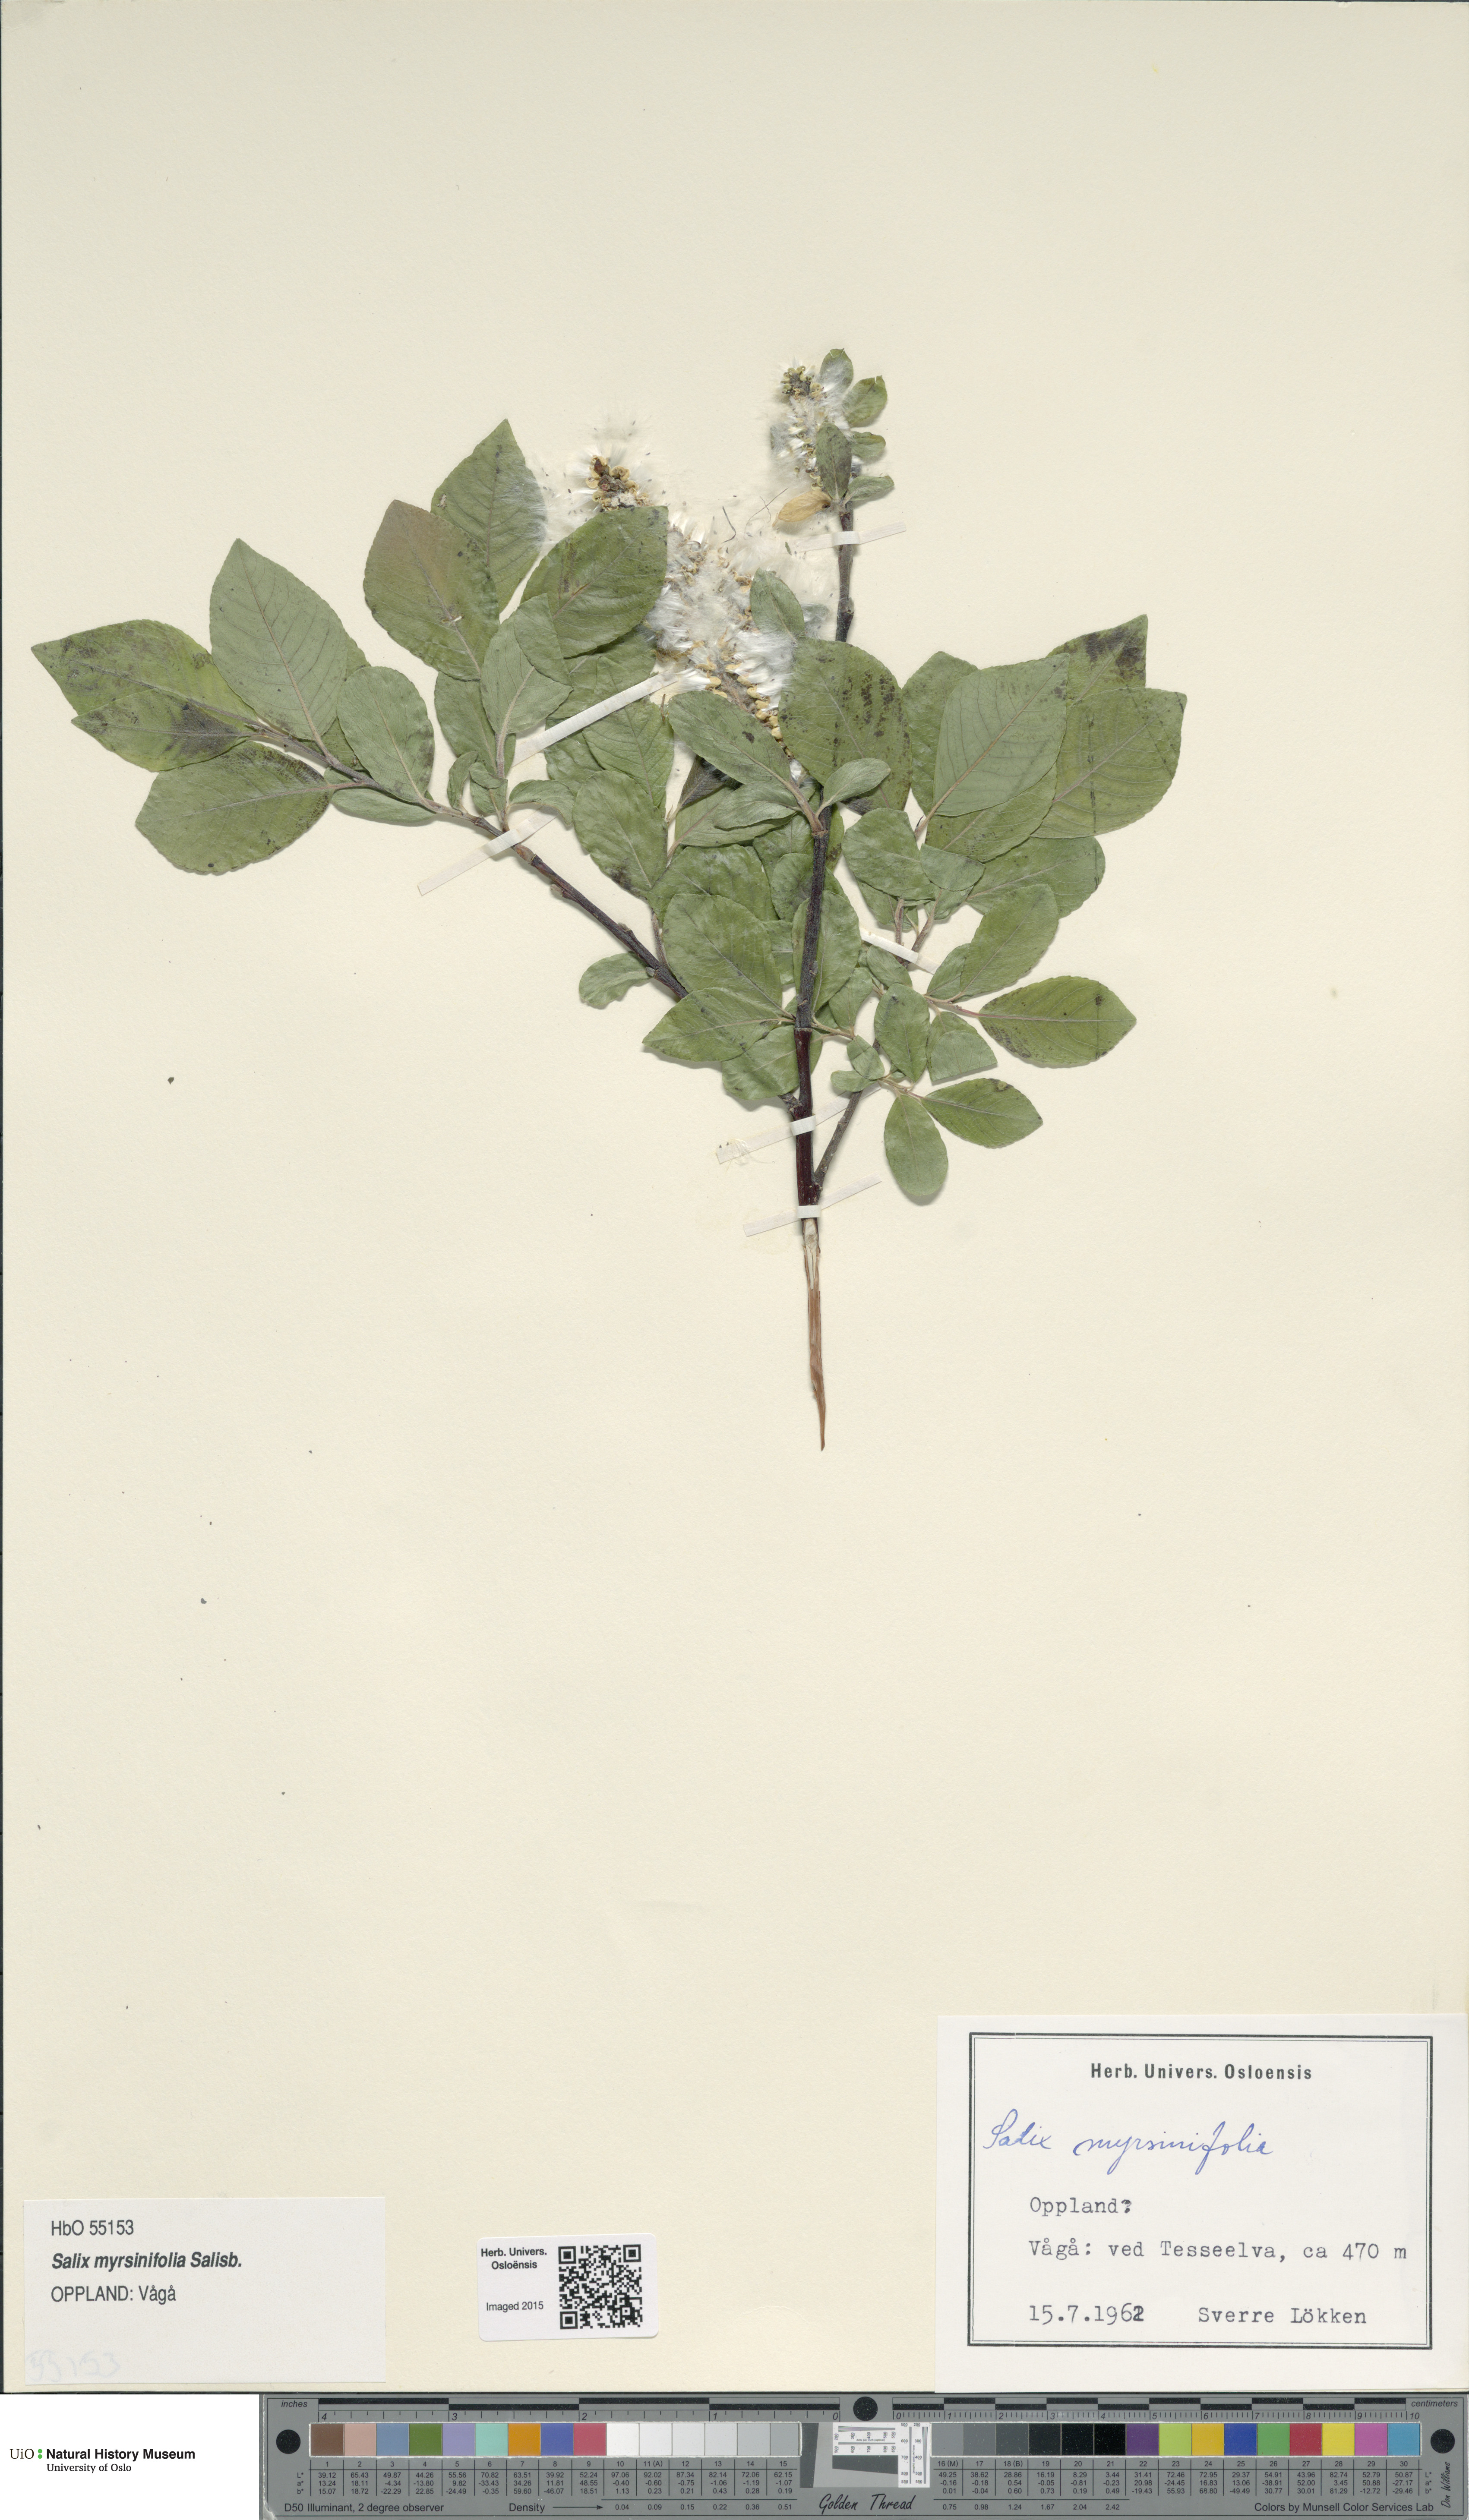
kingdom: Plantae
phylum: Tracheophyta
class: Magnoliopsida
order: Malpighiales
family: Salicaceae
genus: Salix
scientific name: Salix myrsinifolia
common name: Dark-leaved willow
